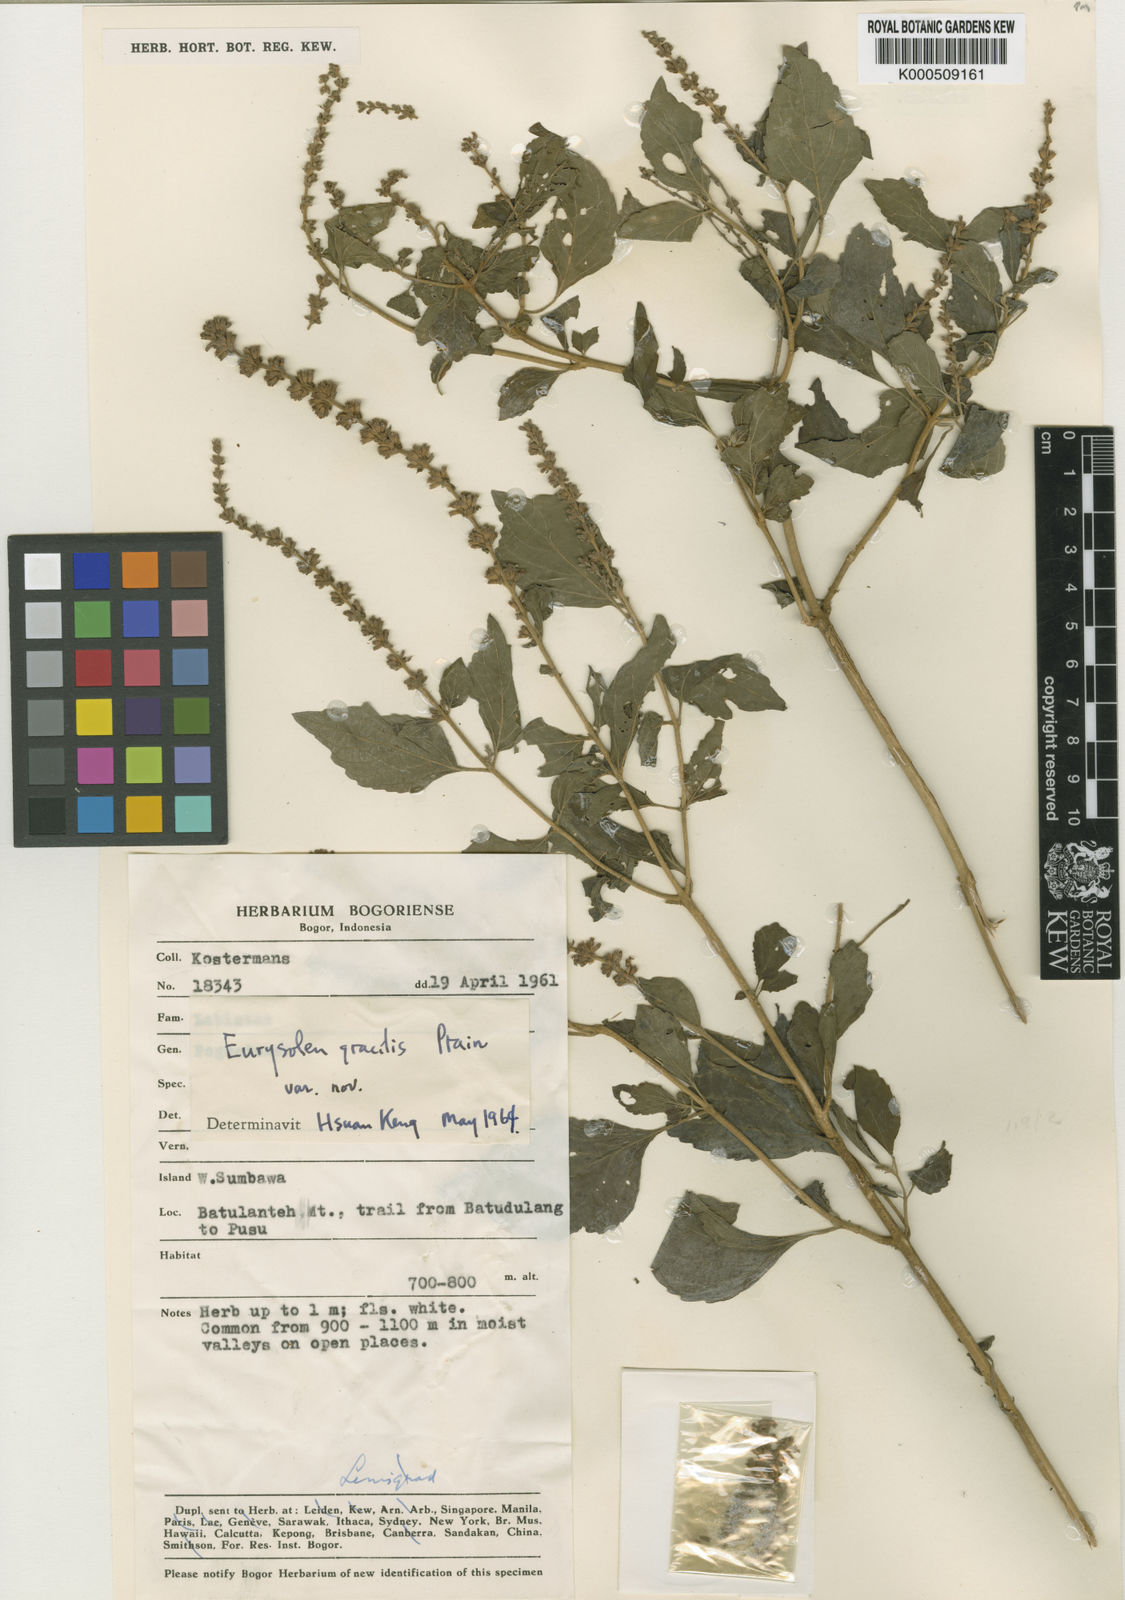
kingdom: Plantae
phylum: Tracheophyta
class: Magnoliopsida
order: Lamiales
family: Lamiaceae
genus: Eurysolen
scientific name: Eurysolen gracilis
